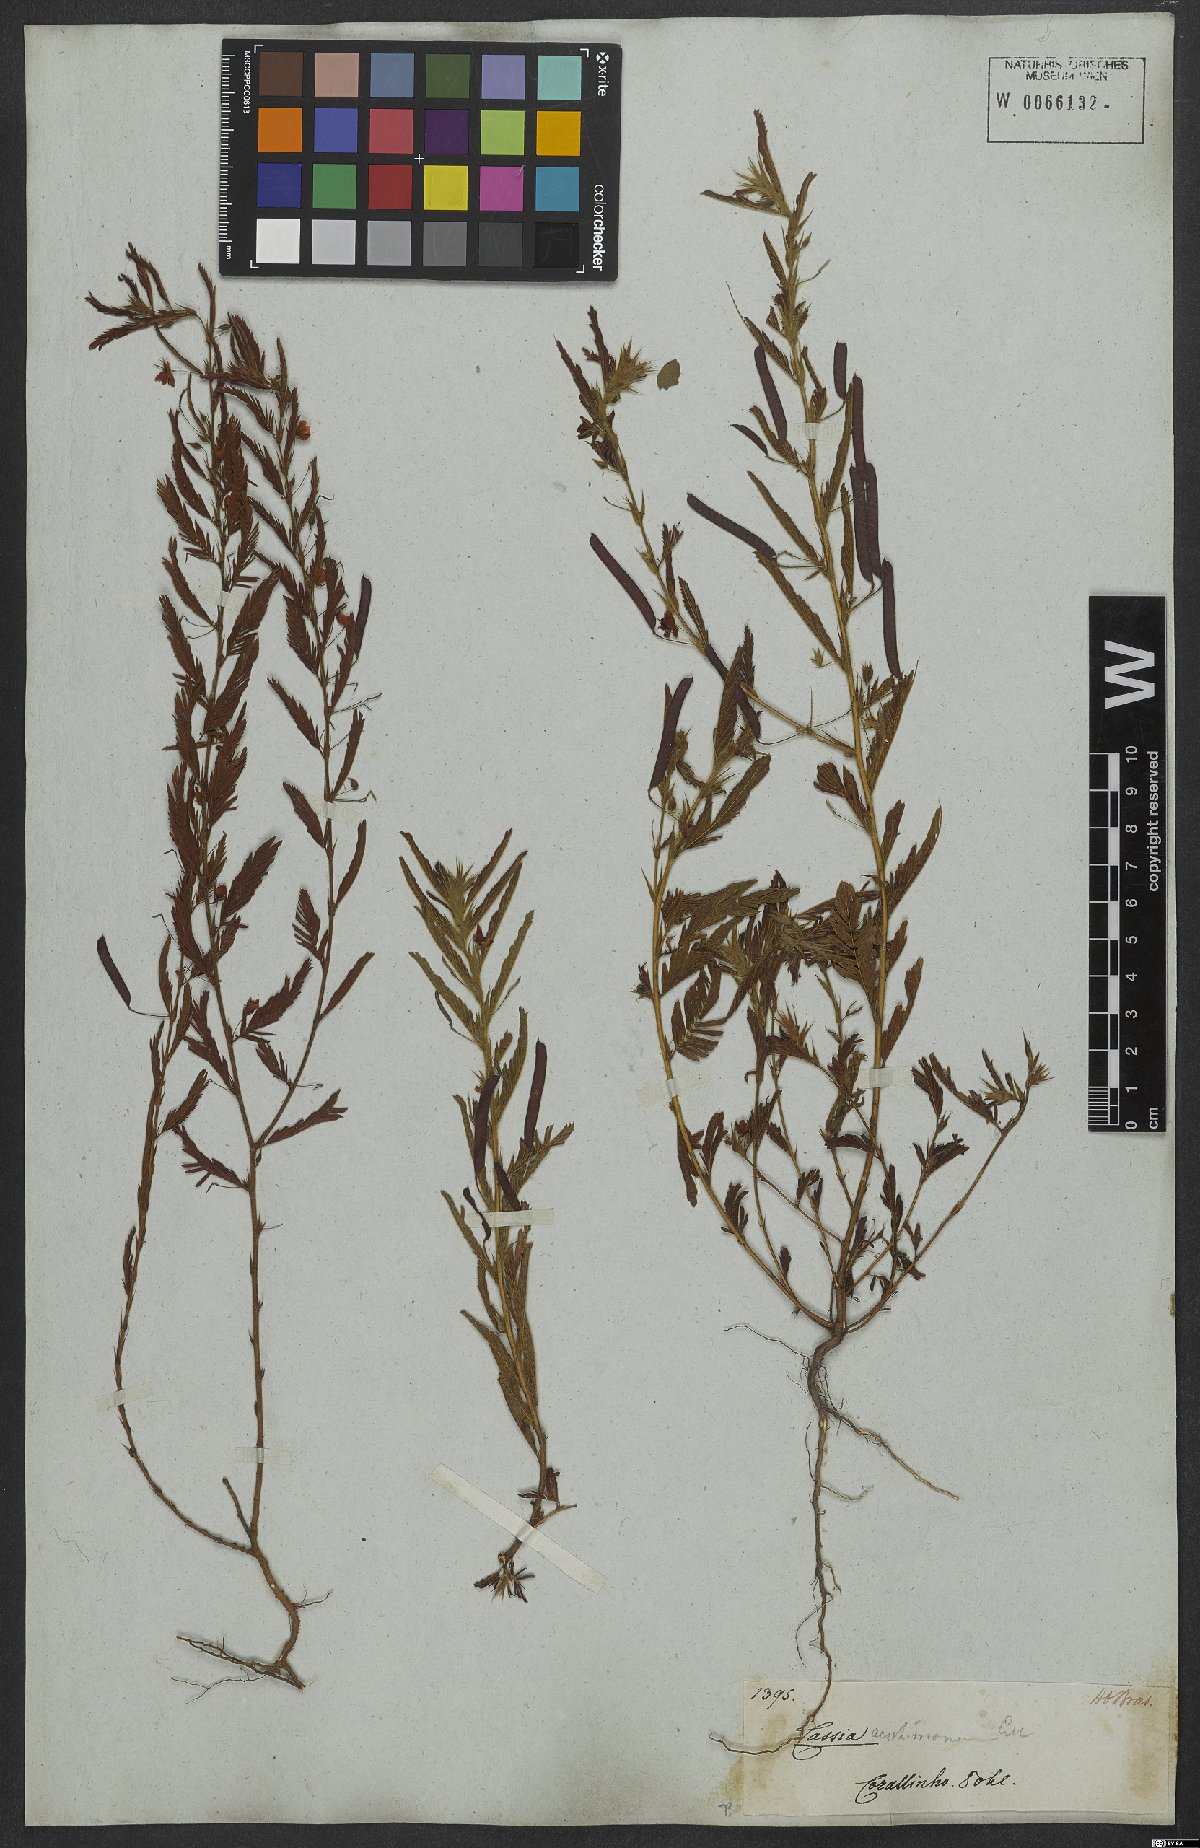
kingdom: Plantae
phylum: Tracheophyta
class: Magnoliopsida
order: Fabales
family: Fabaceae
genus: Chamaecrista
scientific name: Chamaecrista nictitans
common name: Sensitive cassia
